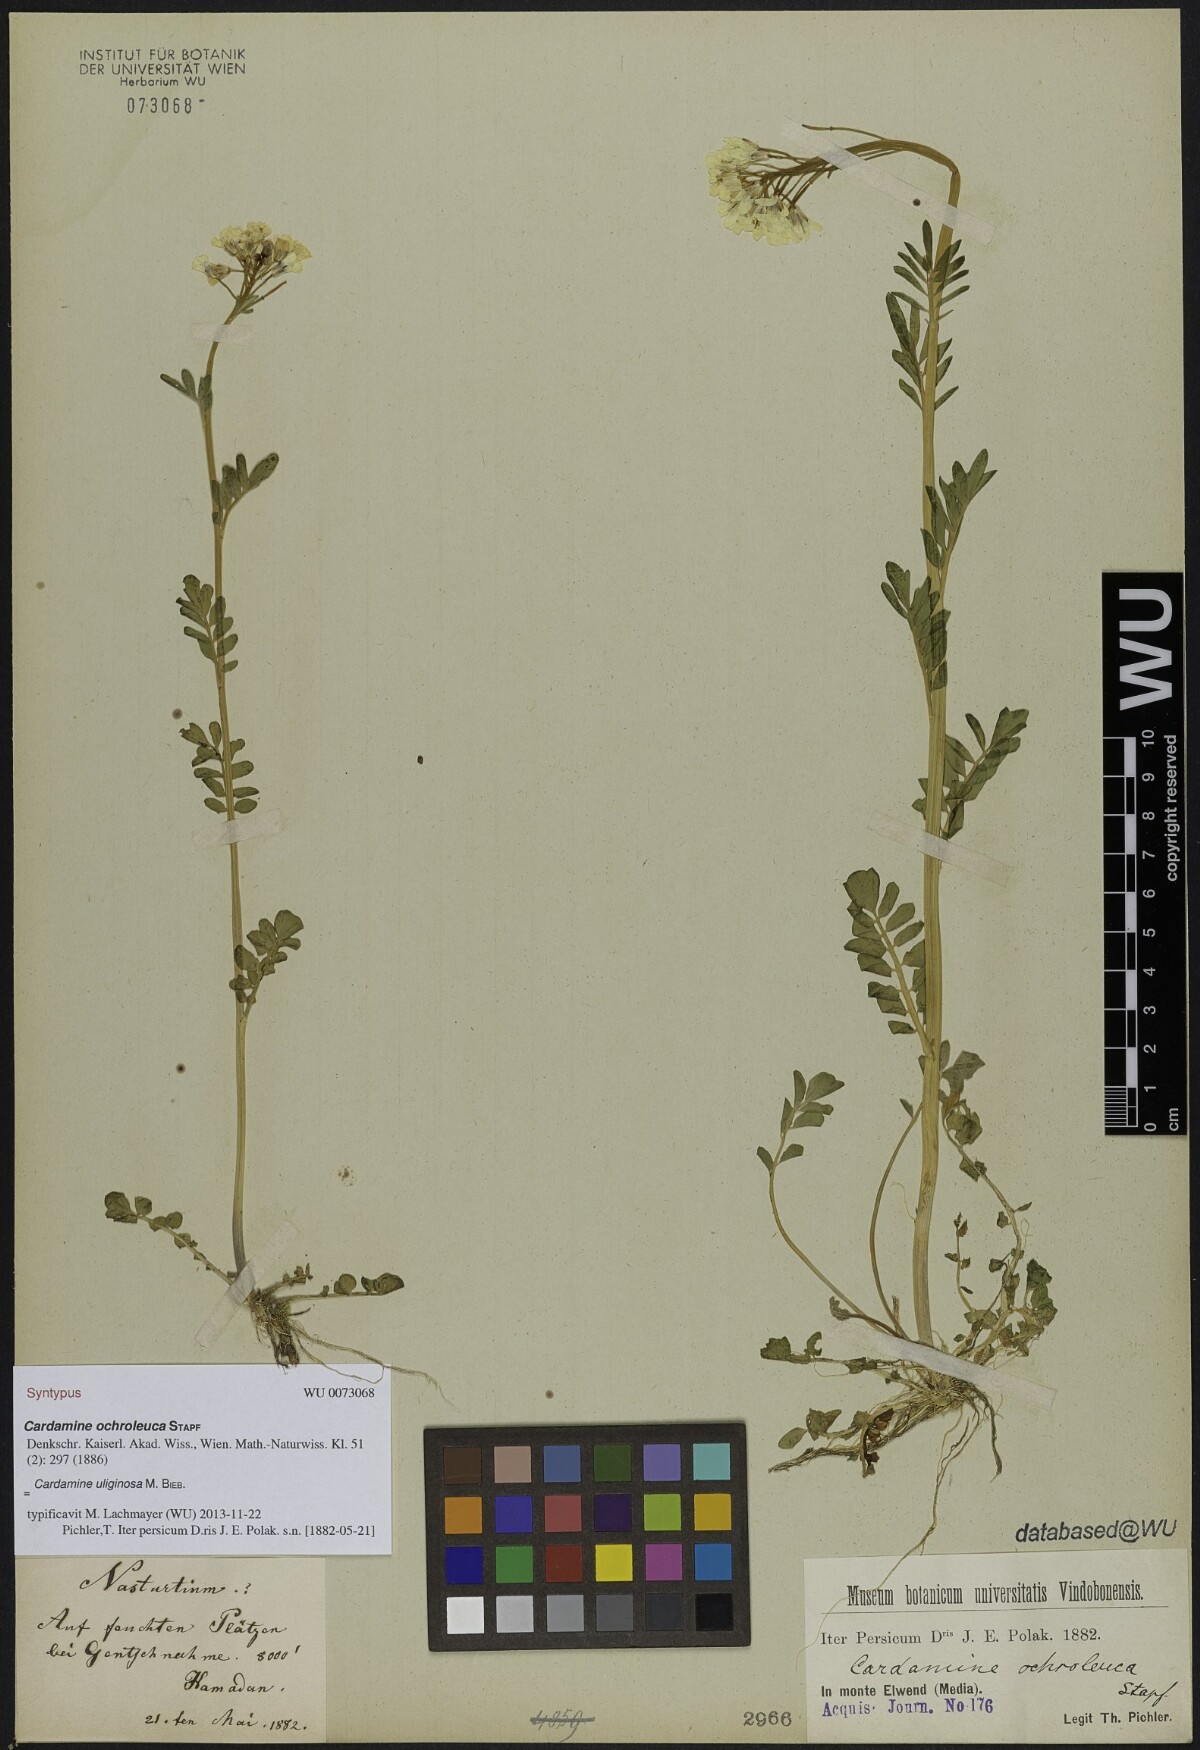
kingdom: Plantae
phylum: Tracheophyta
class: Magnoliopsida
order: Brassicales
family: Brassicaceae
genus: Cardamine
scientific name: Cardamine uliginosa
